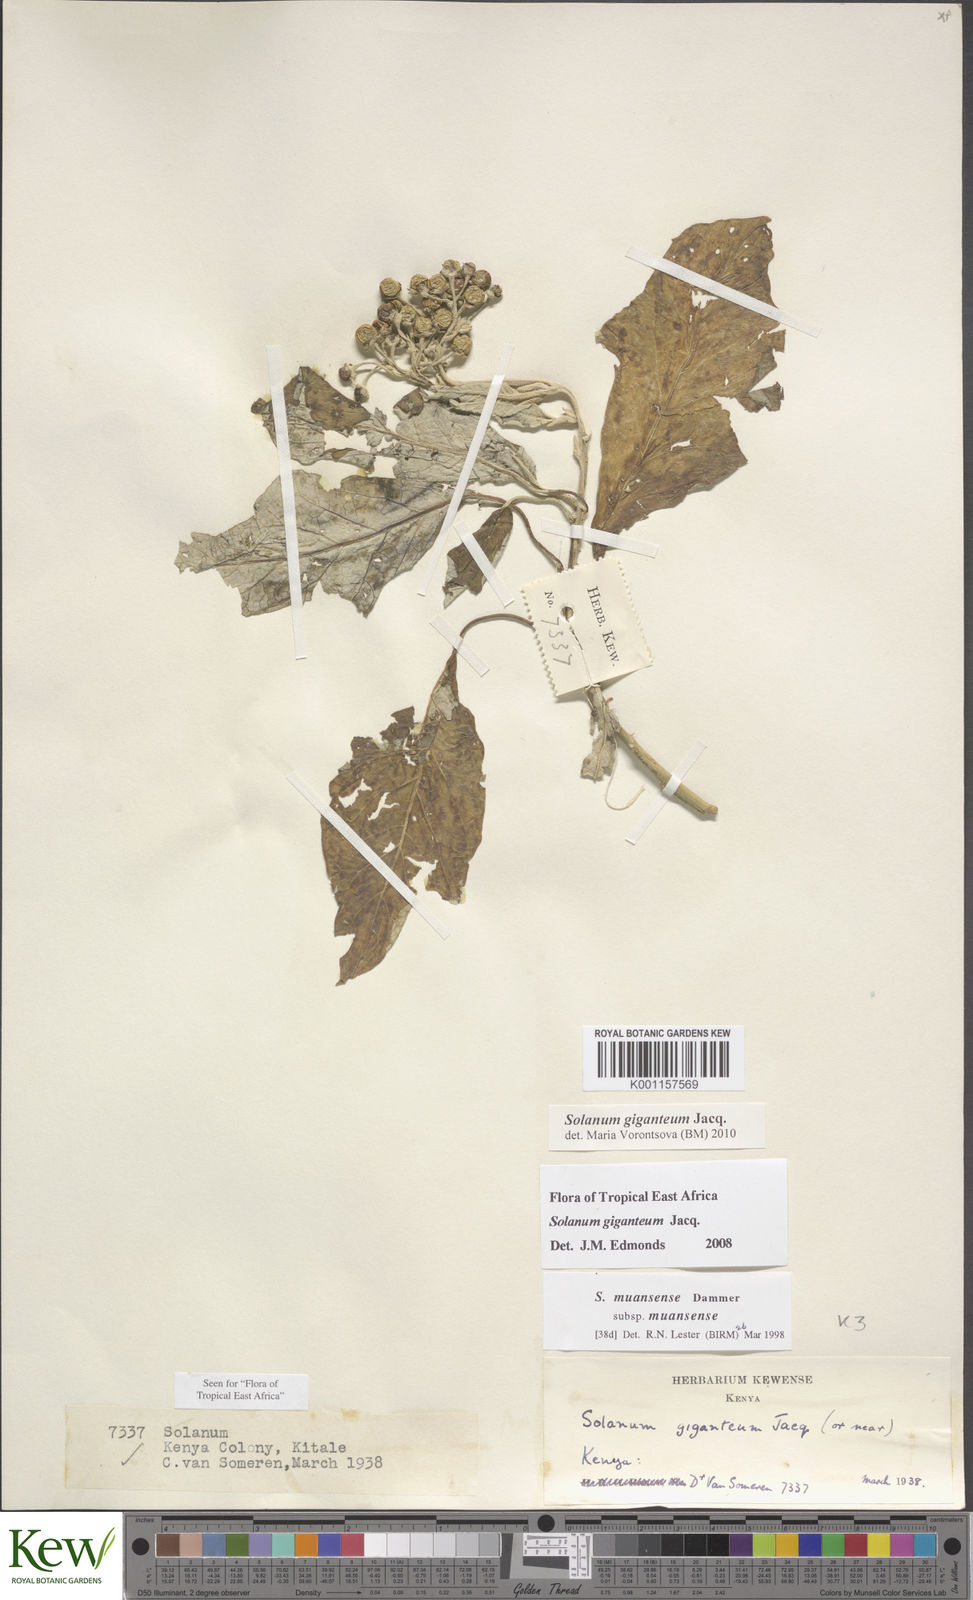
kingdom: Plantae
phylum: Tracheophyta
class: Magnoliopsida
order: Solanales
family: Solanaceae
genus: Solanum
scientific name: Solanum giganteum
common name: Healing-leaf-tree
